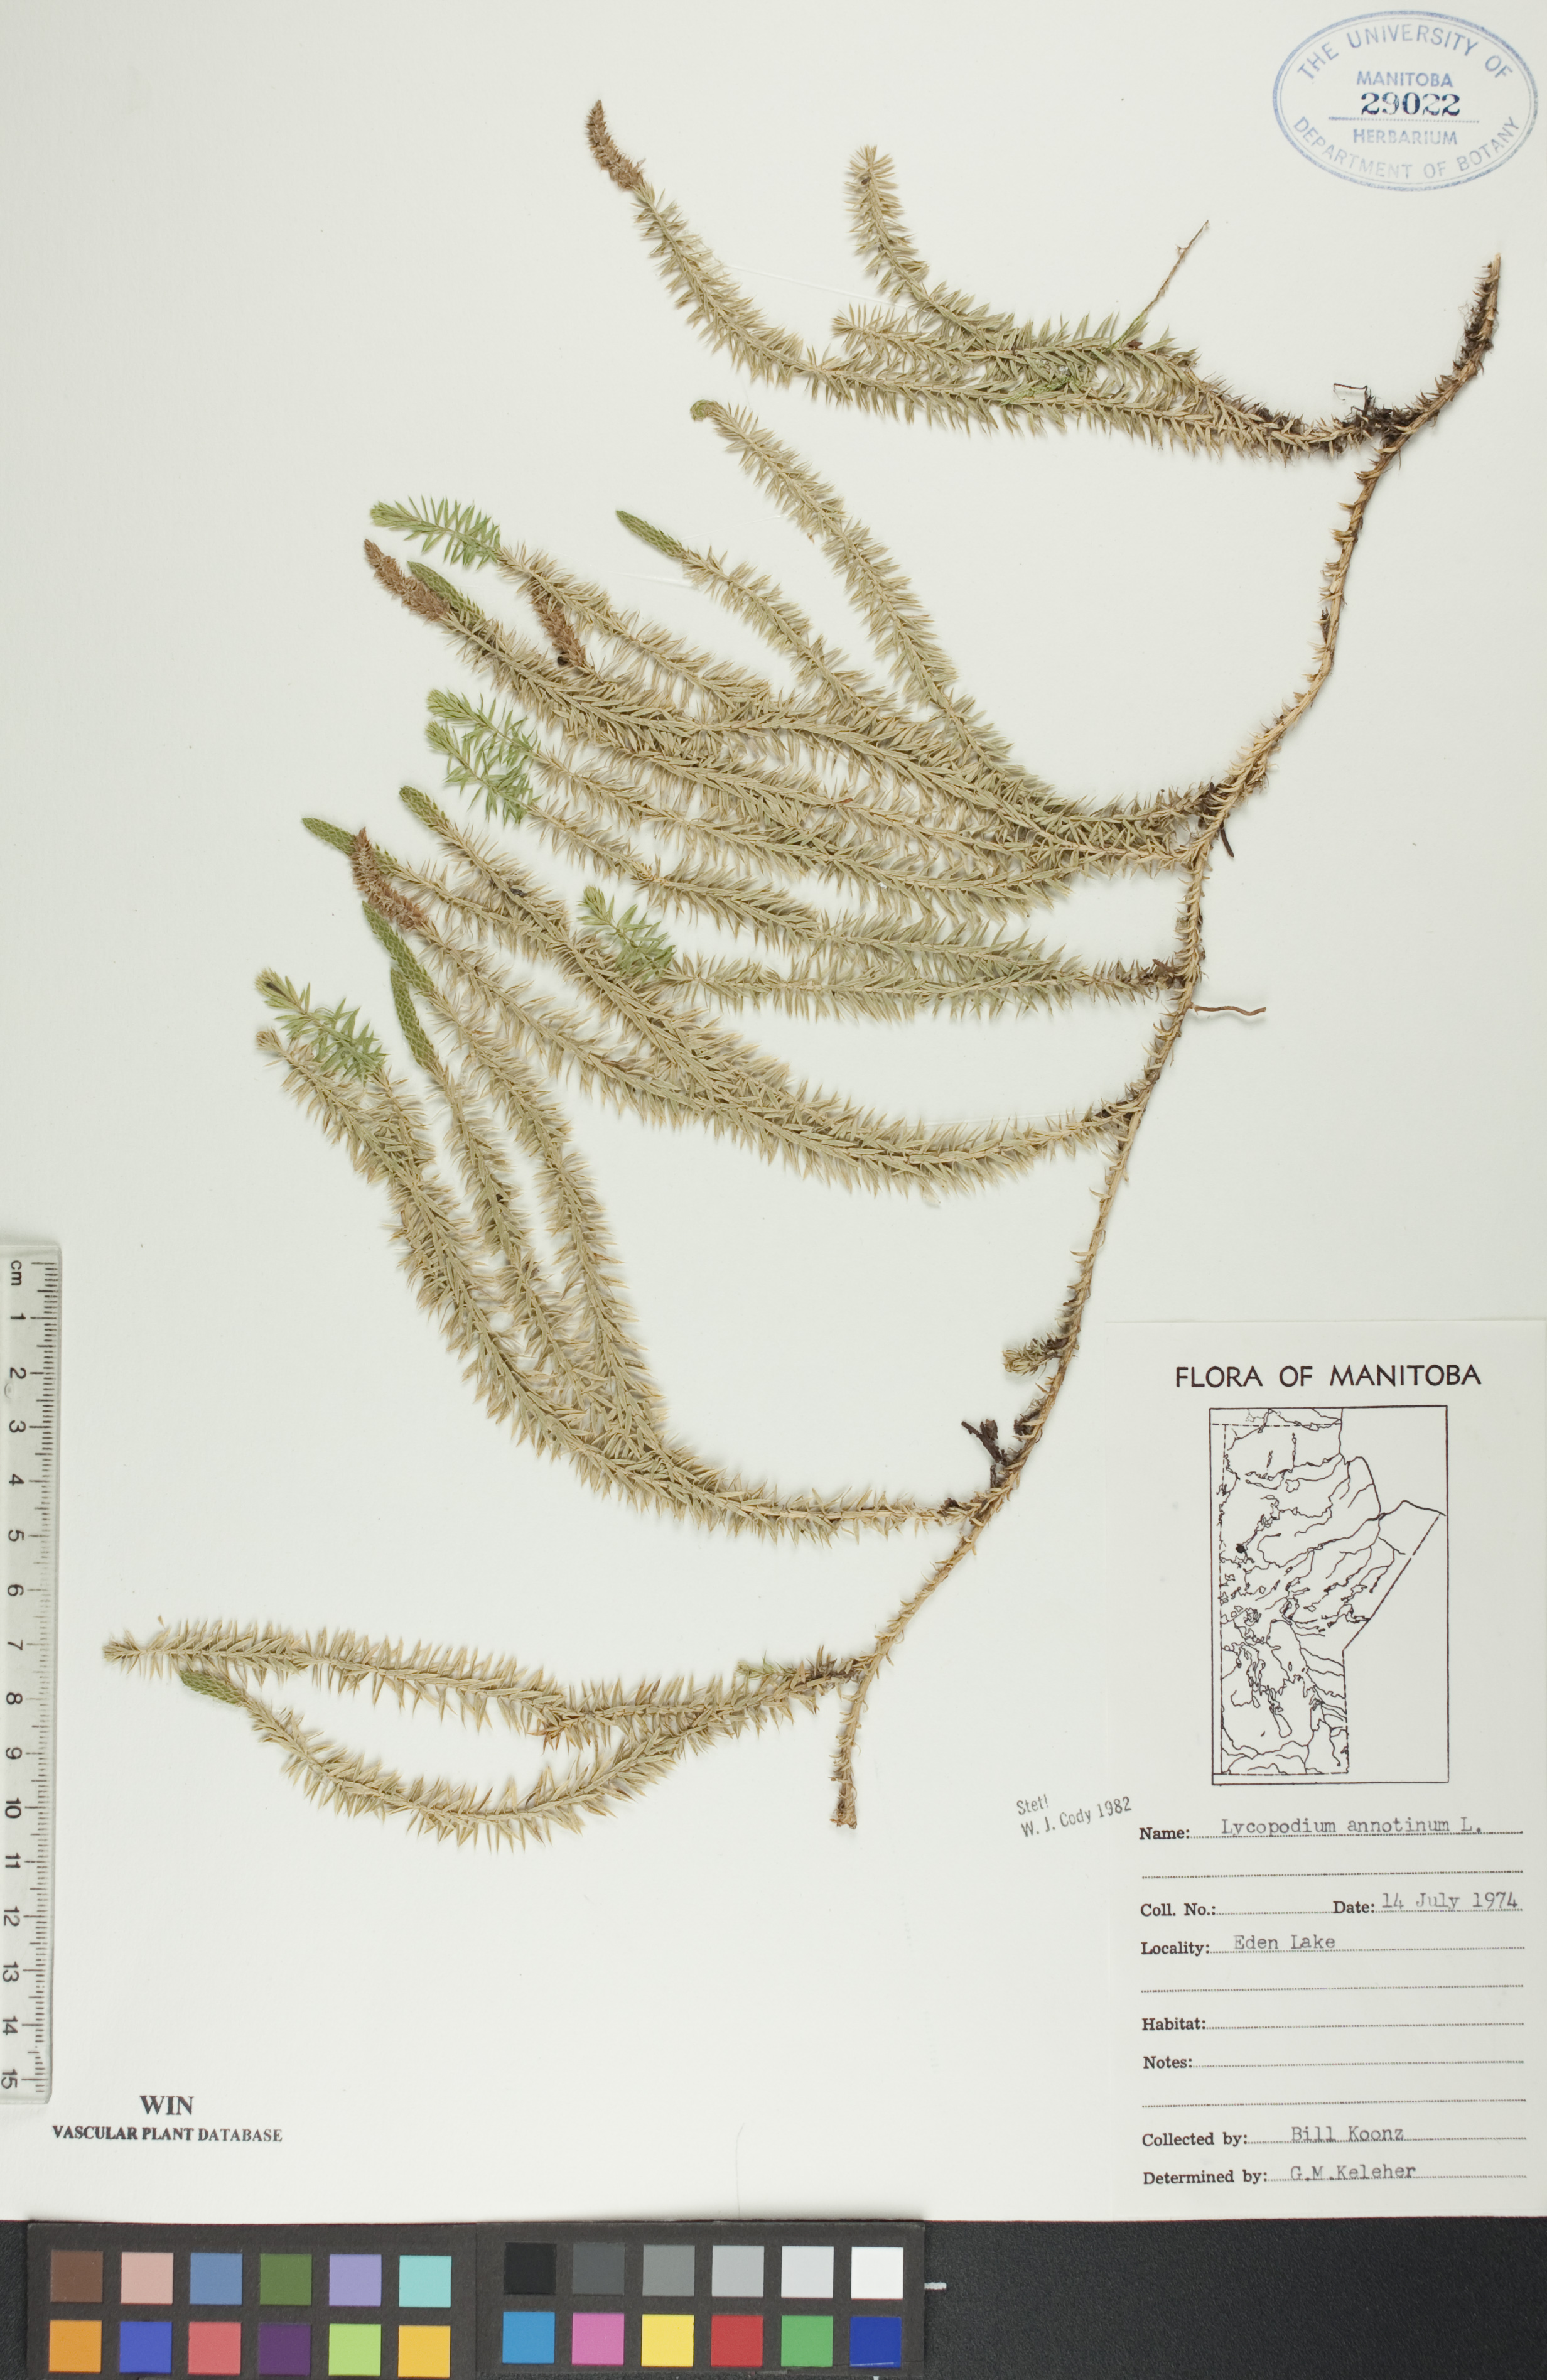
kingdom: Plantae
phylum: Tracheophyta
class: Lycopodiopsida
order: Lycopodiales
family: Lycopodiaceae
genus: Spinulum
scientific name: Spinulum annotinum
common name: Interrupted club-moss
